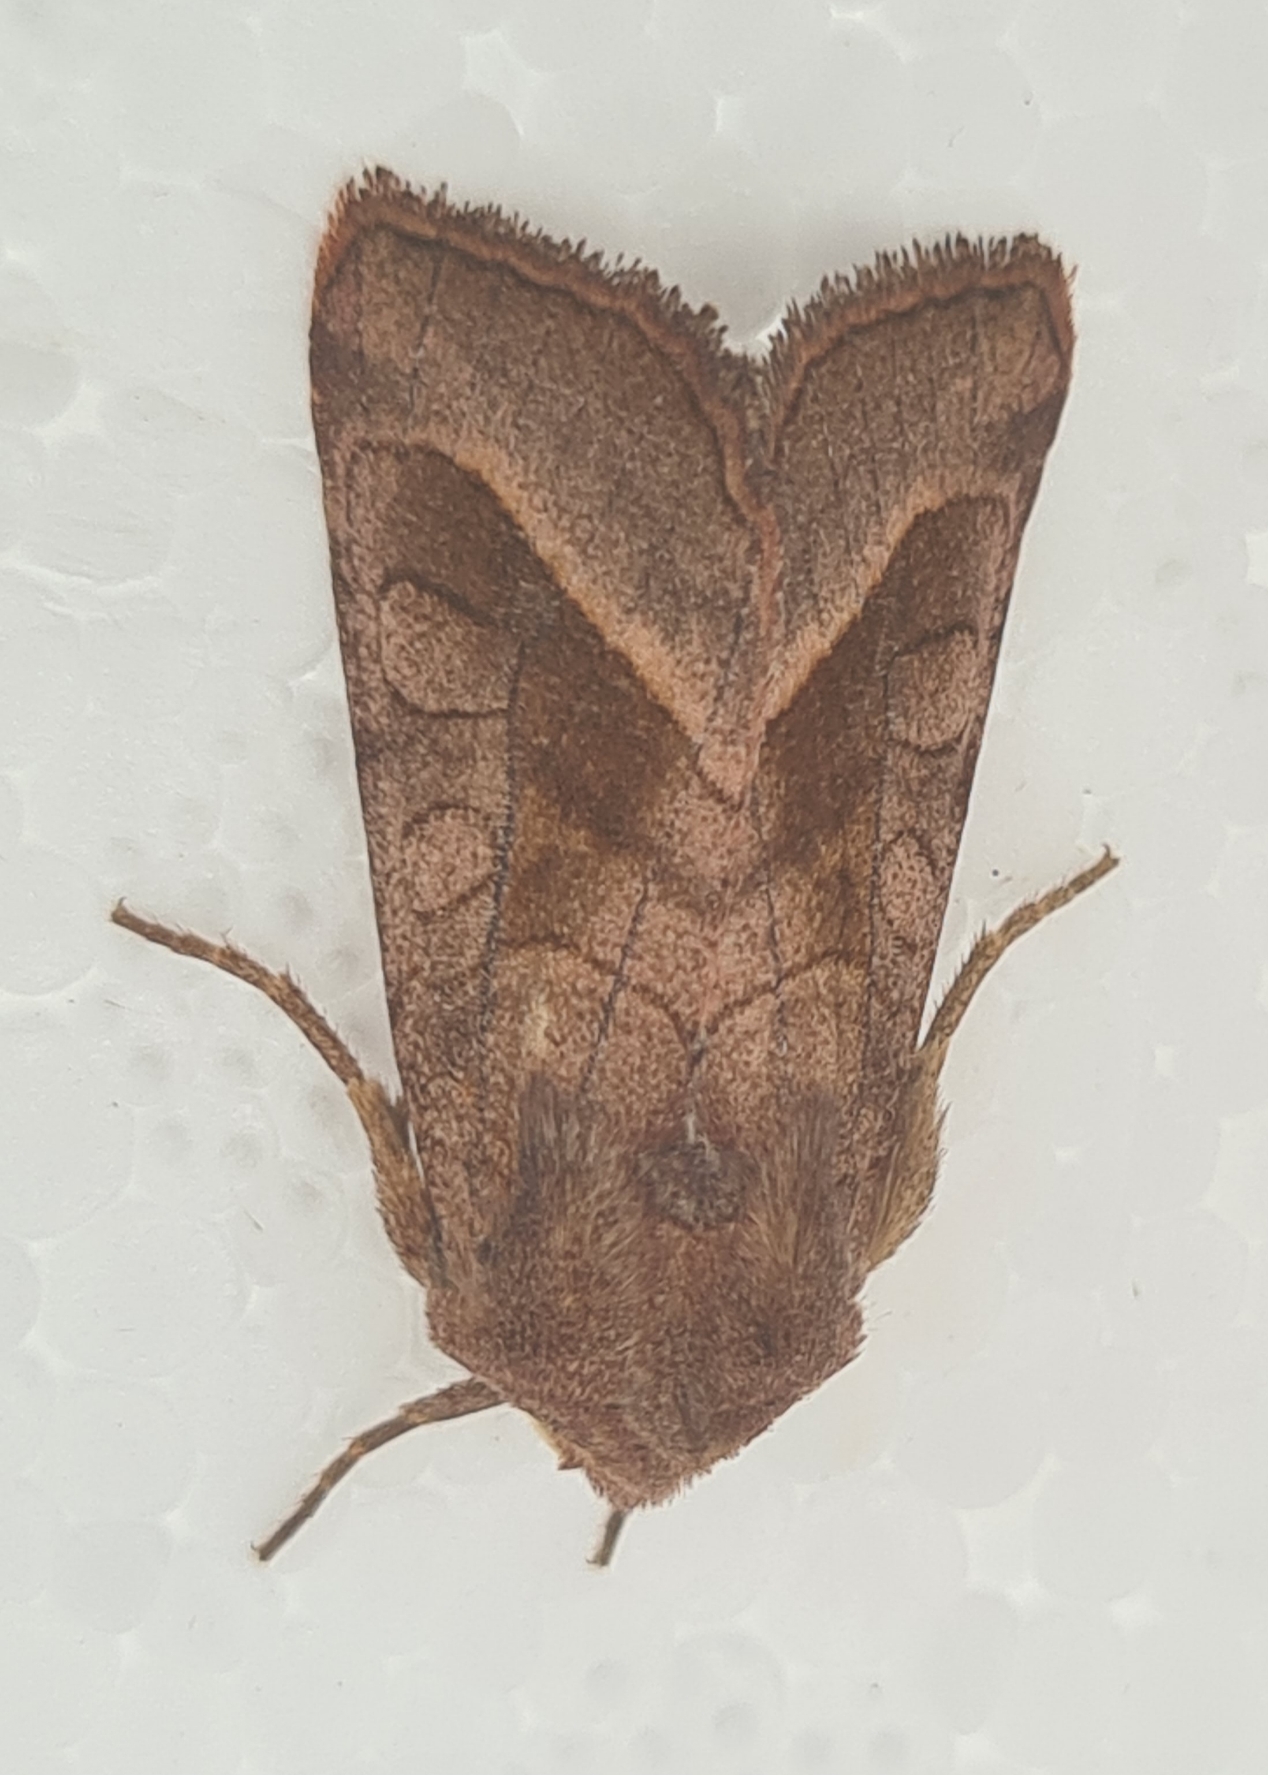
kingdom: Animalia
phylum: Arthropoda
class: Insecta
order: Lepidoptera
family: Noctuidae
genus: Hydraecia
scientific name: Hydraecia micacea
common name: Kartoffelborer
